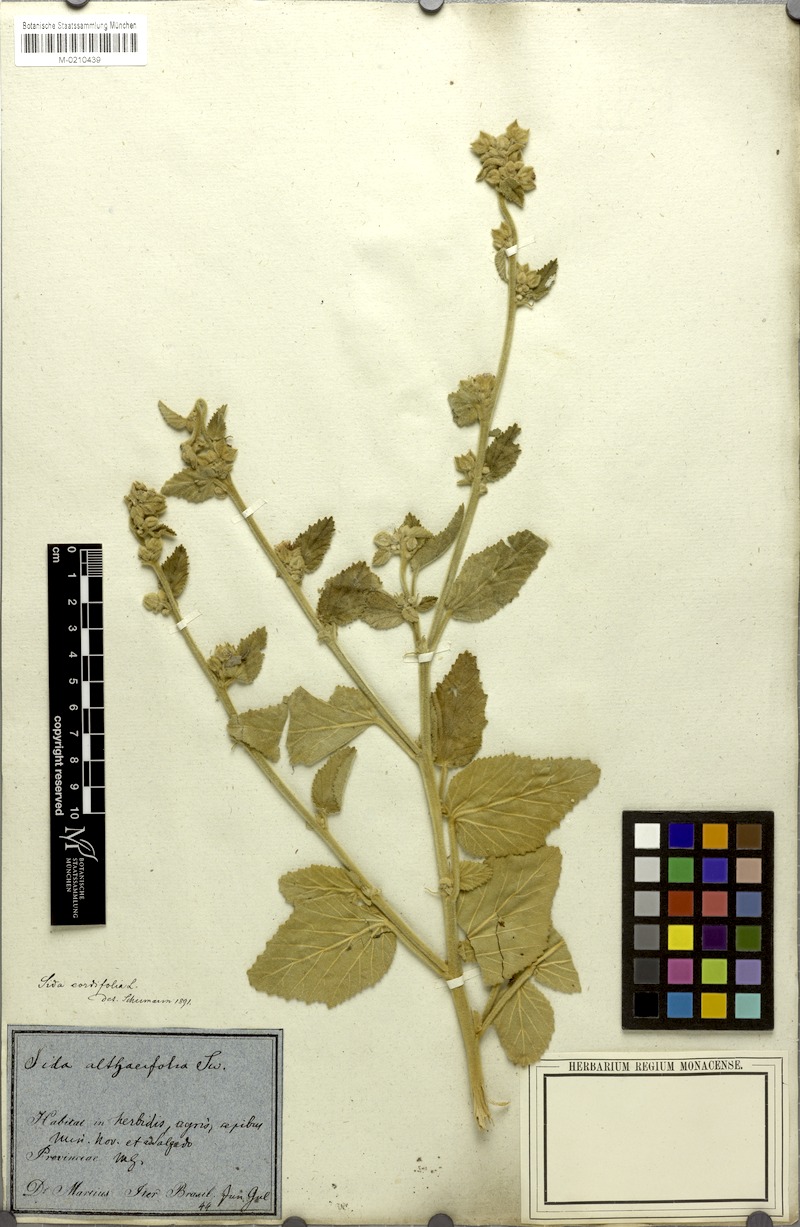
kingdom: Plantae
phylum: Tracheophyta
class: Magnoliopsida
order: Malvales
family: Malvaceae
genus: Sida
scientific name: Sida cordifolia
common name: Ilima
